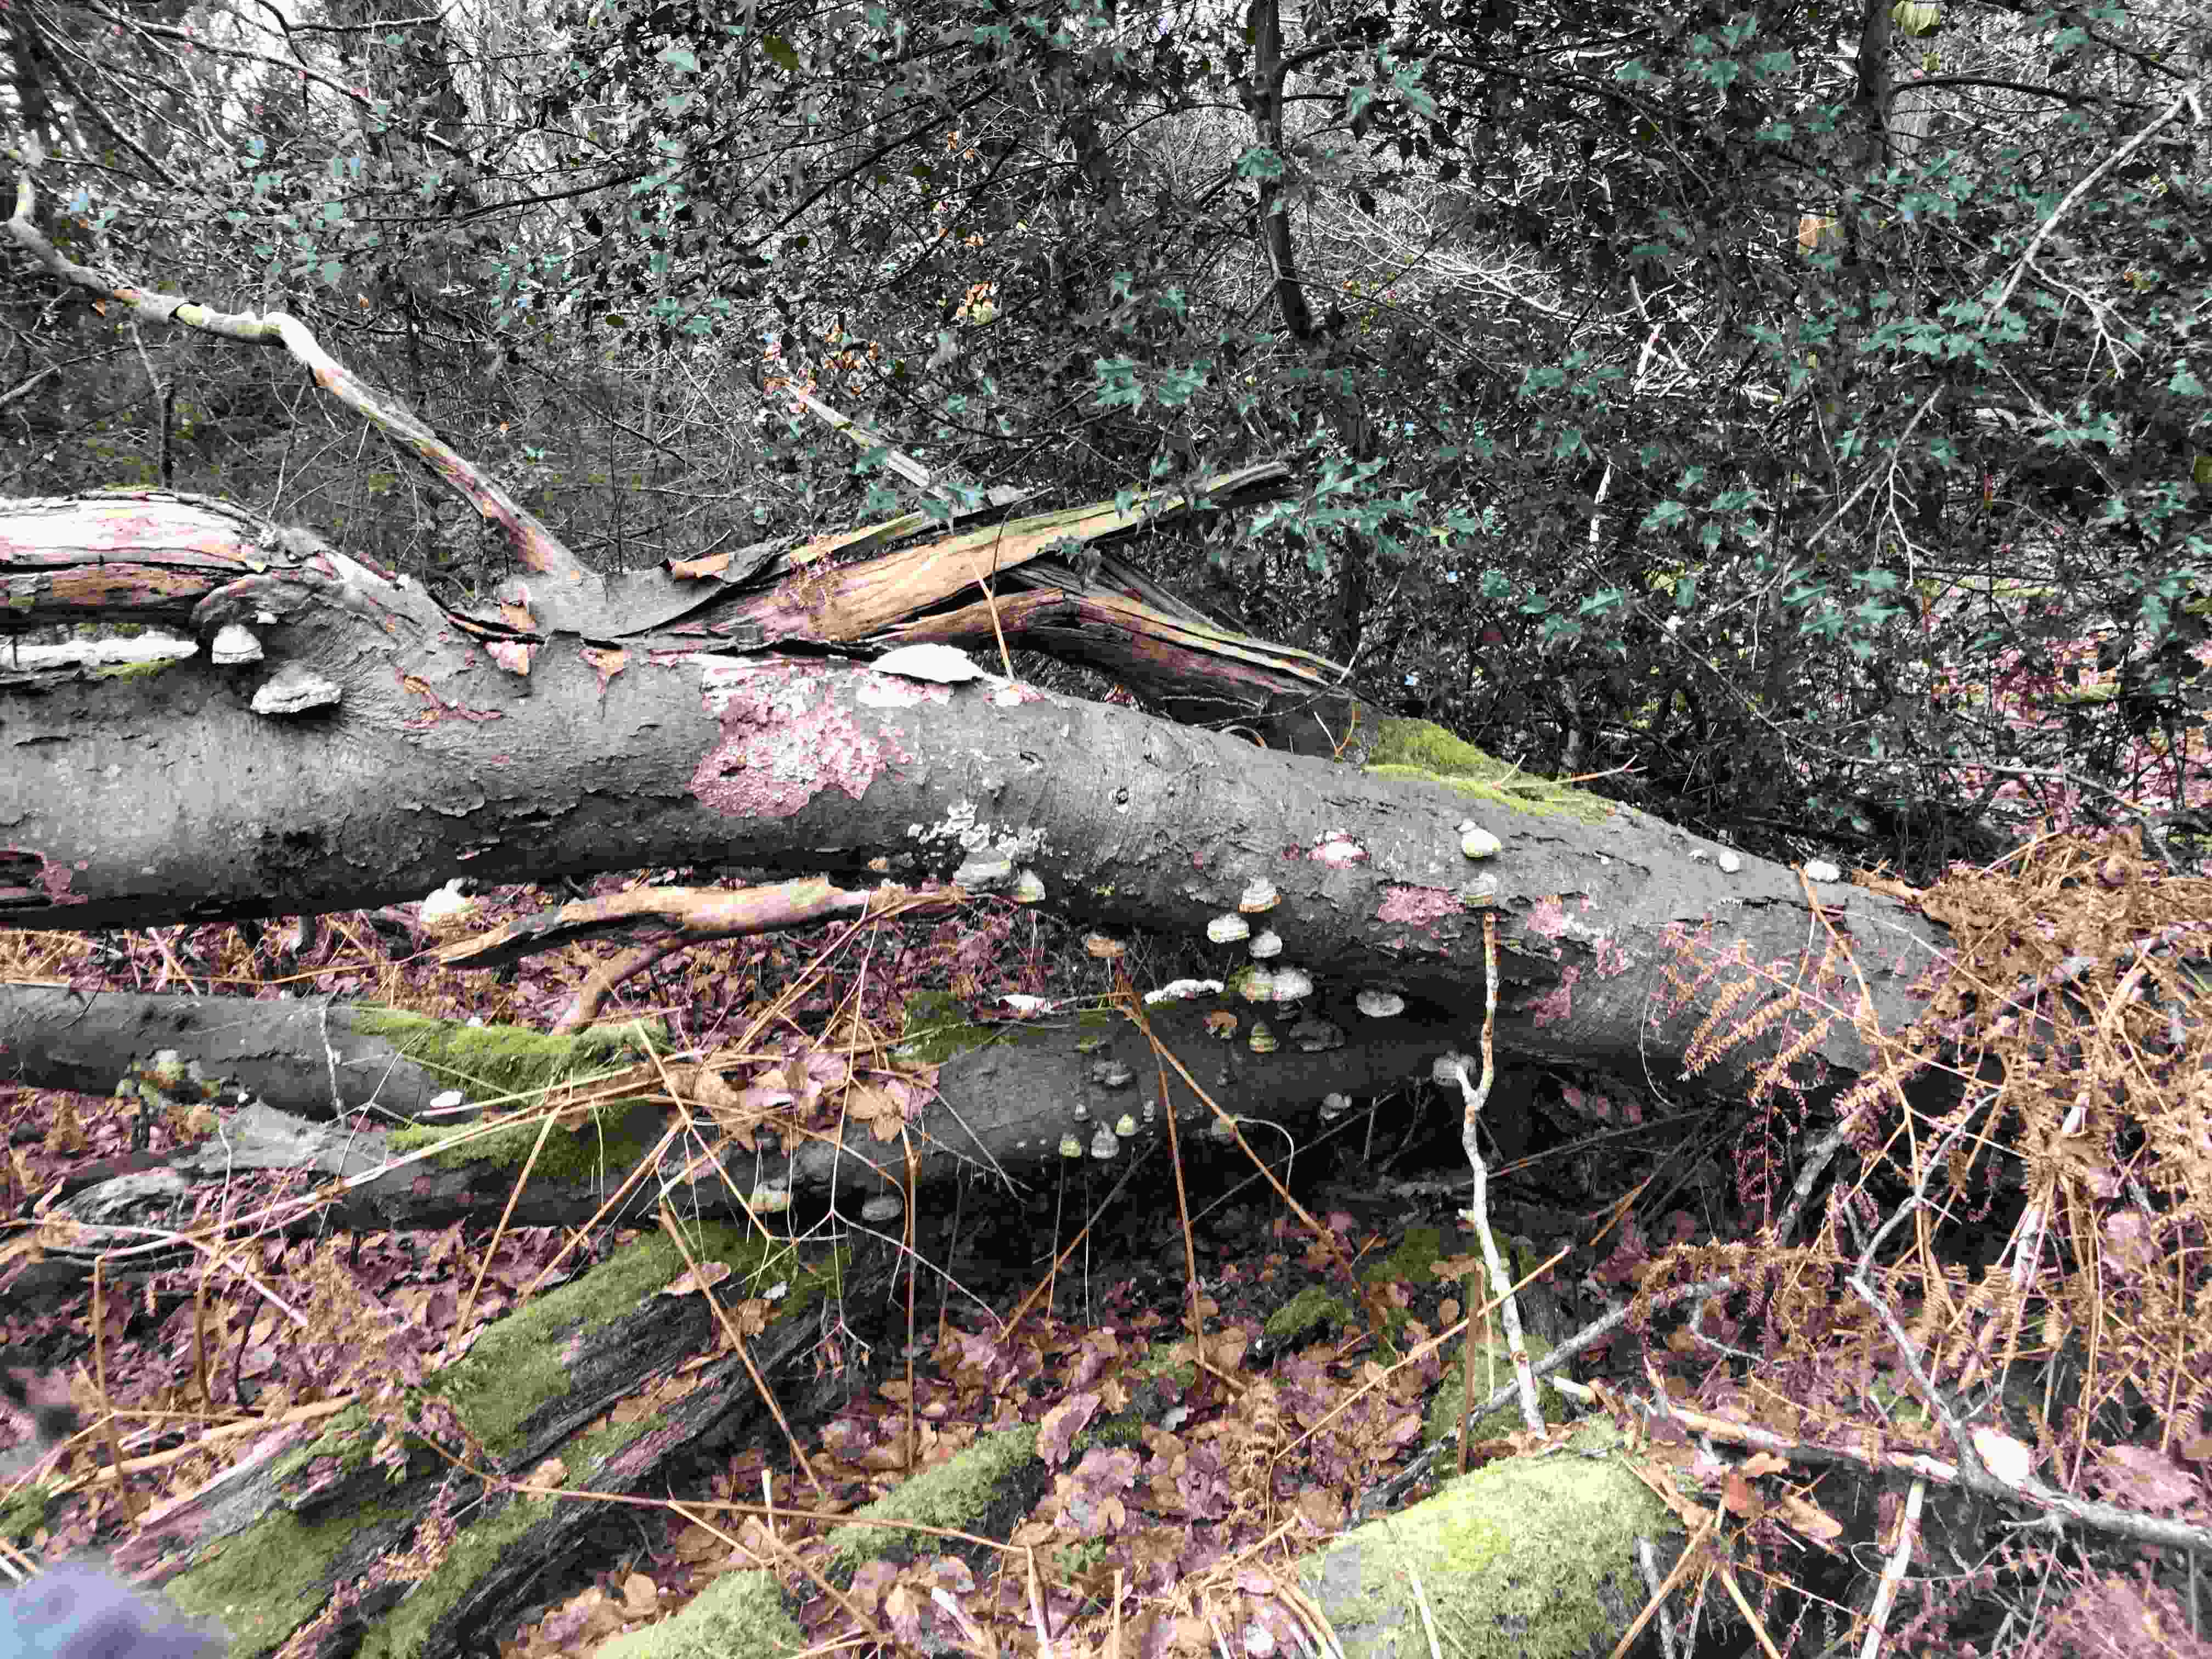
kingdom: Fungi
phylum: Basidiomycota
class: Agaricomycetes
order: Polyporales
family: Polyporaceae
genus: Trametes
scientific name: Trametes gibbosa
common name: puklet læderporesvamp
